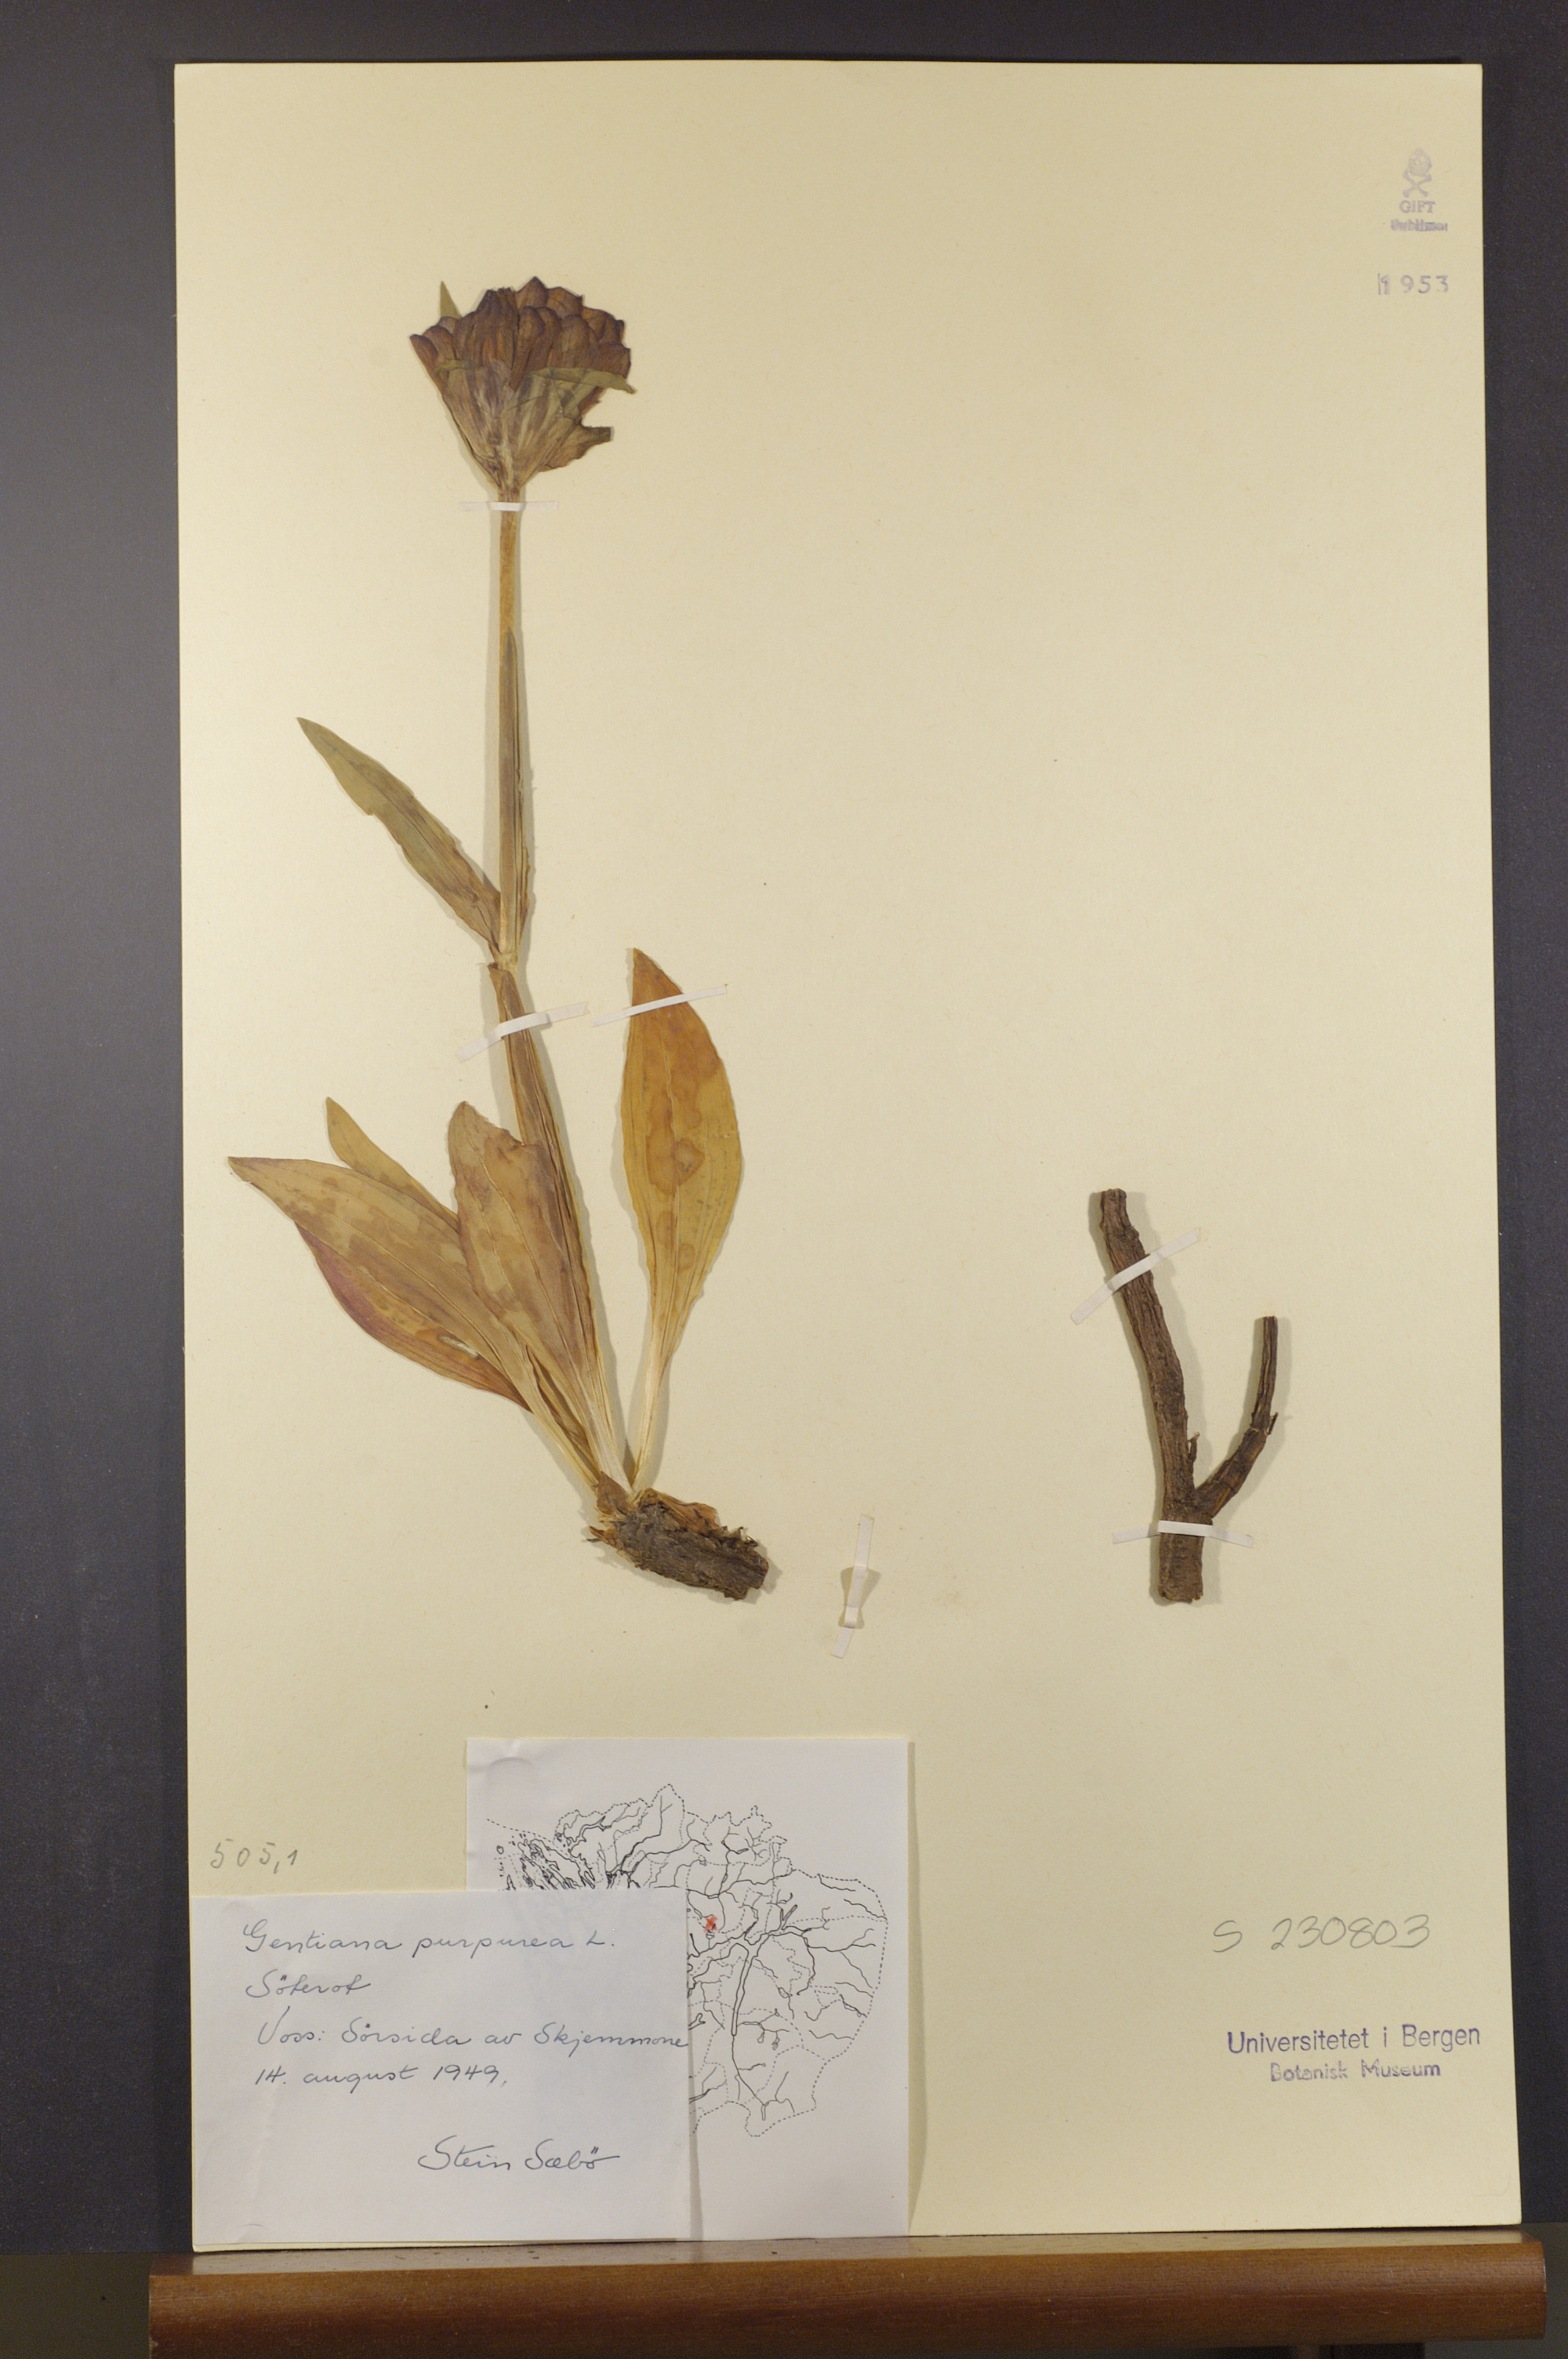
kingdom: Plantae
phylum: Tracheophyta
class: Magnoliopsida
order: Gentianales
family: Gentianaceae
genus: Gentiana
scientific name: Gentiana purpurea
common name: Purple gentian
